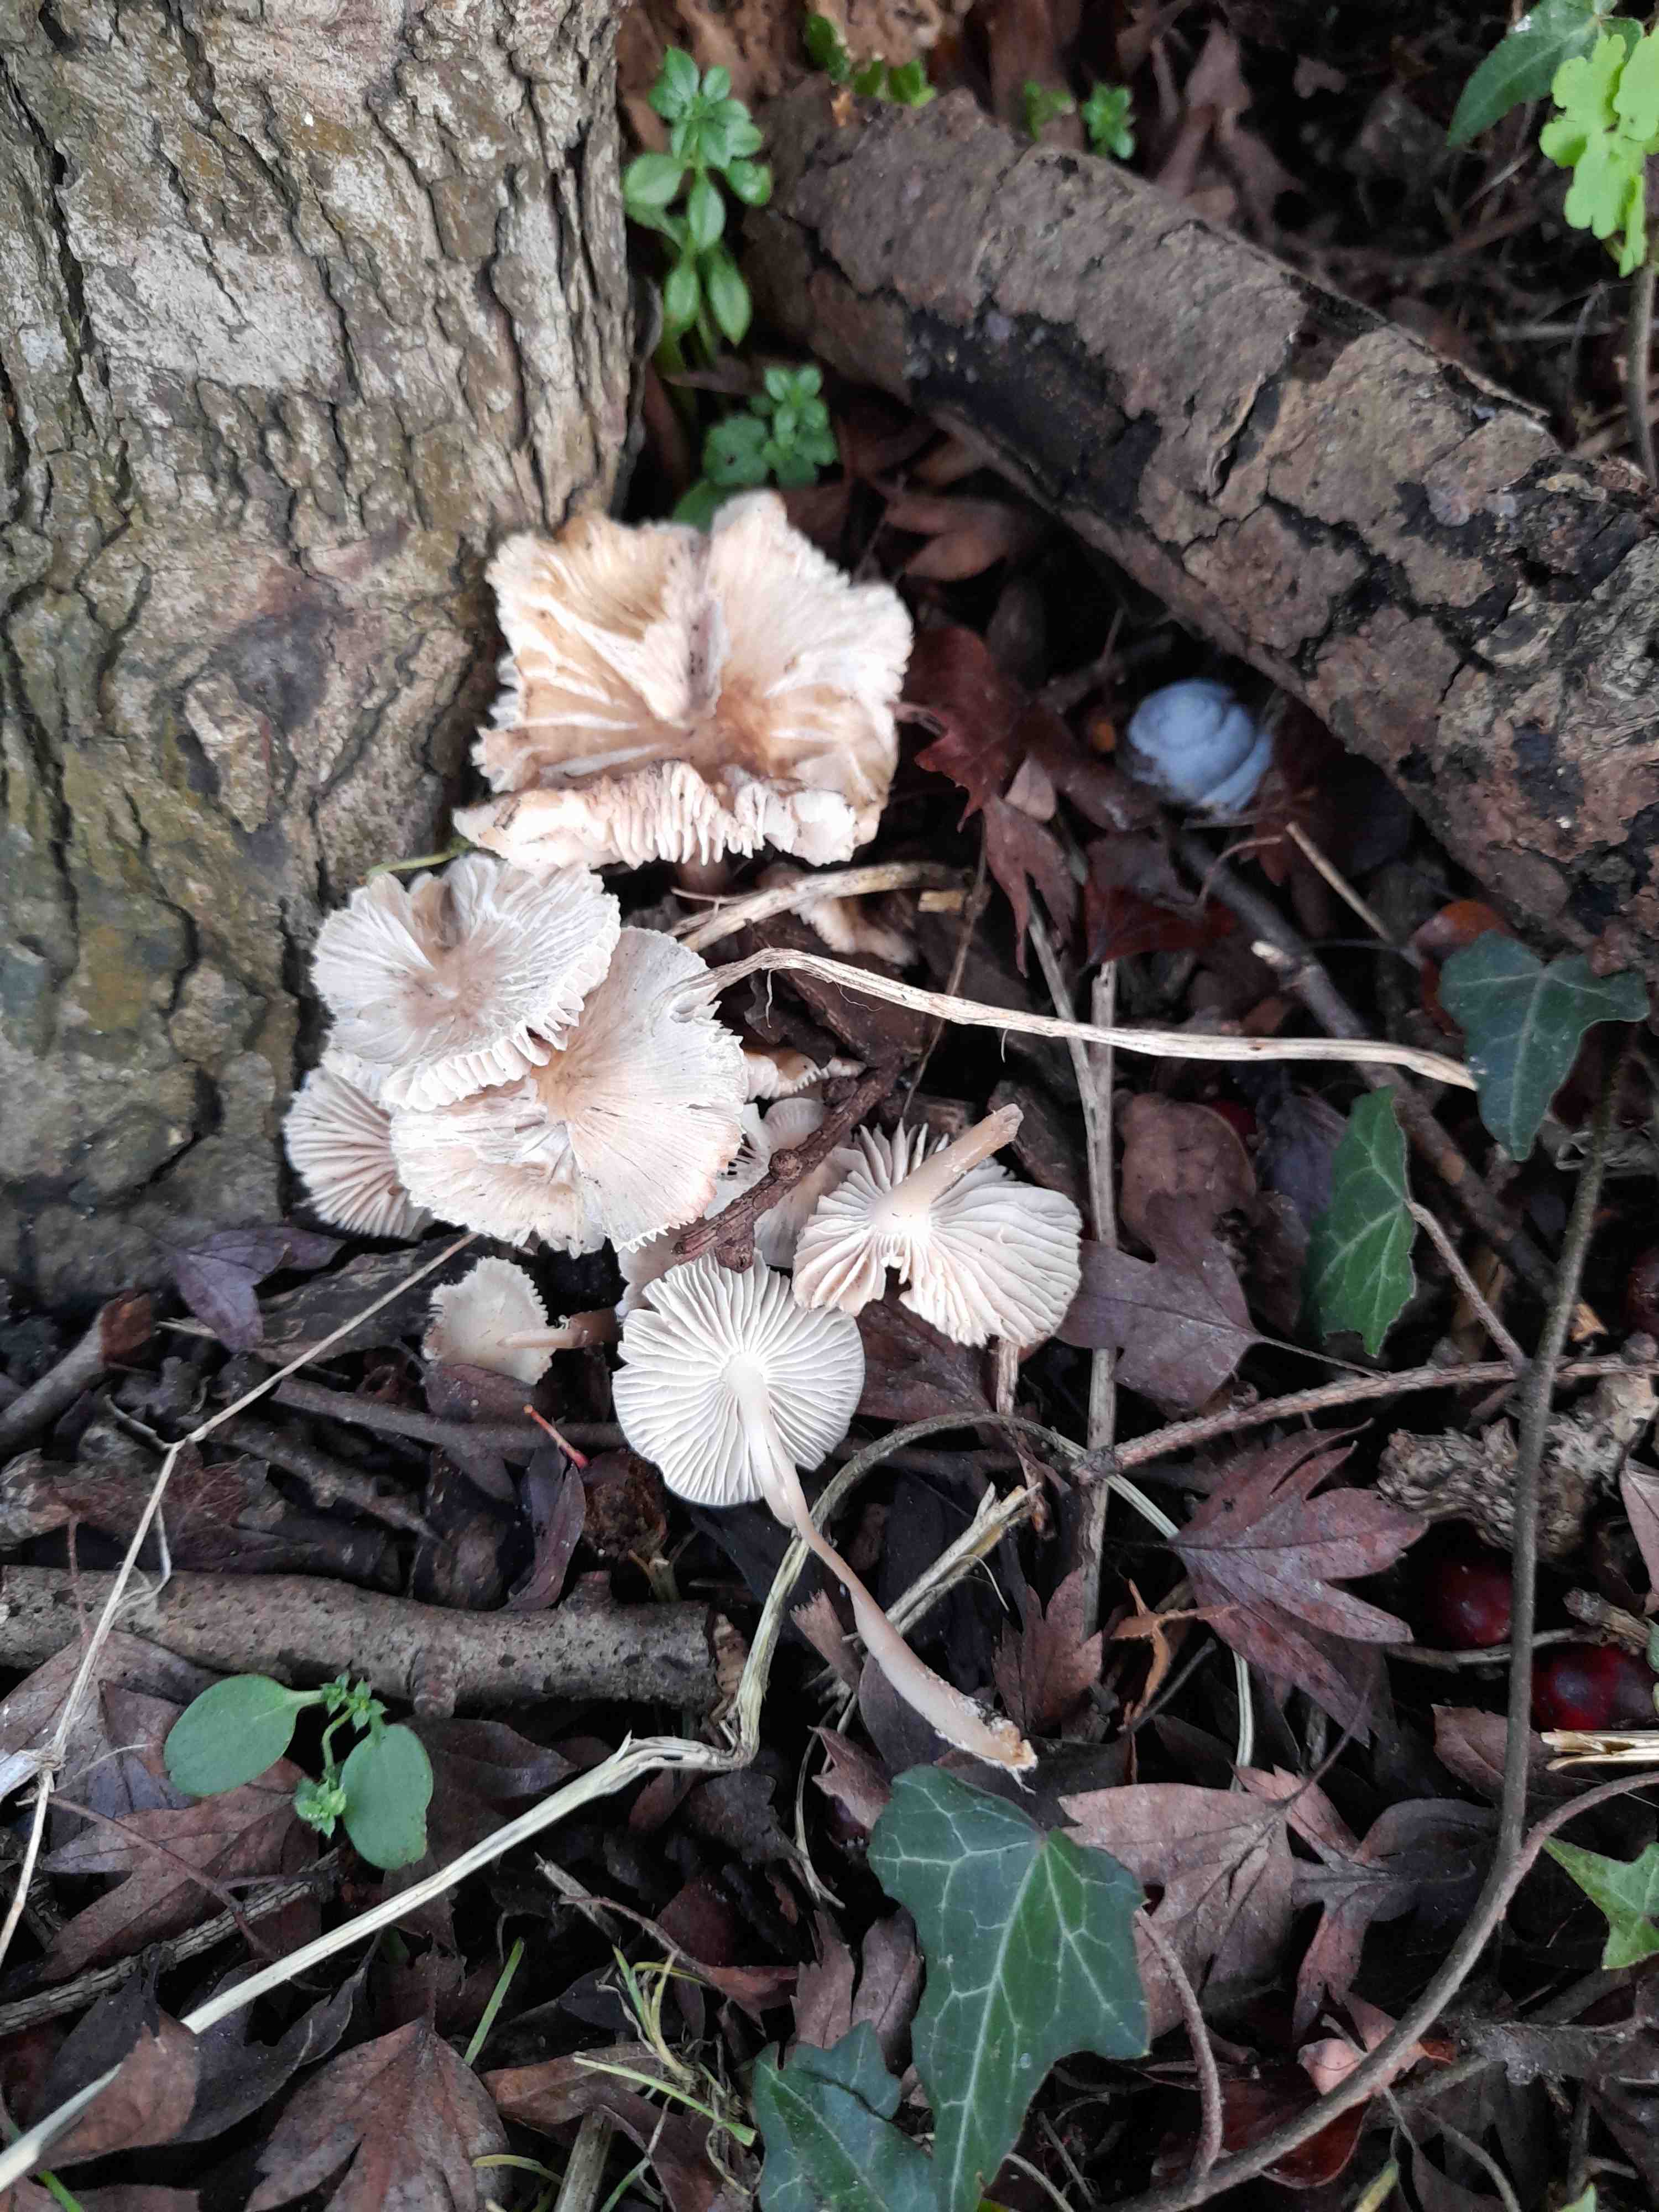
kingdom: Fungi
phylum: Basidiomycota
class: Agaricomycetes
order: Agaricales
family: Mycenaceae
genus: Mycena
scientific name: Mycena galericulata
